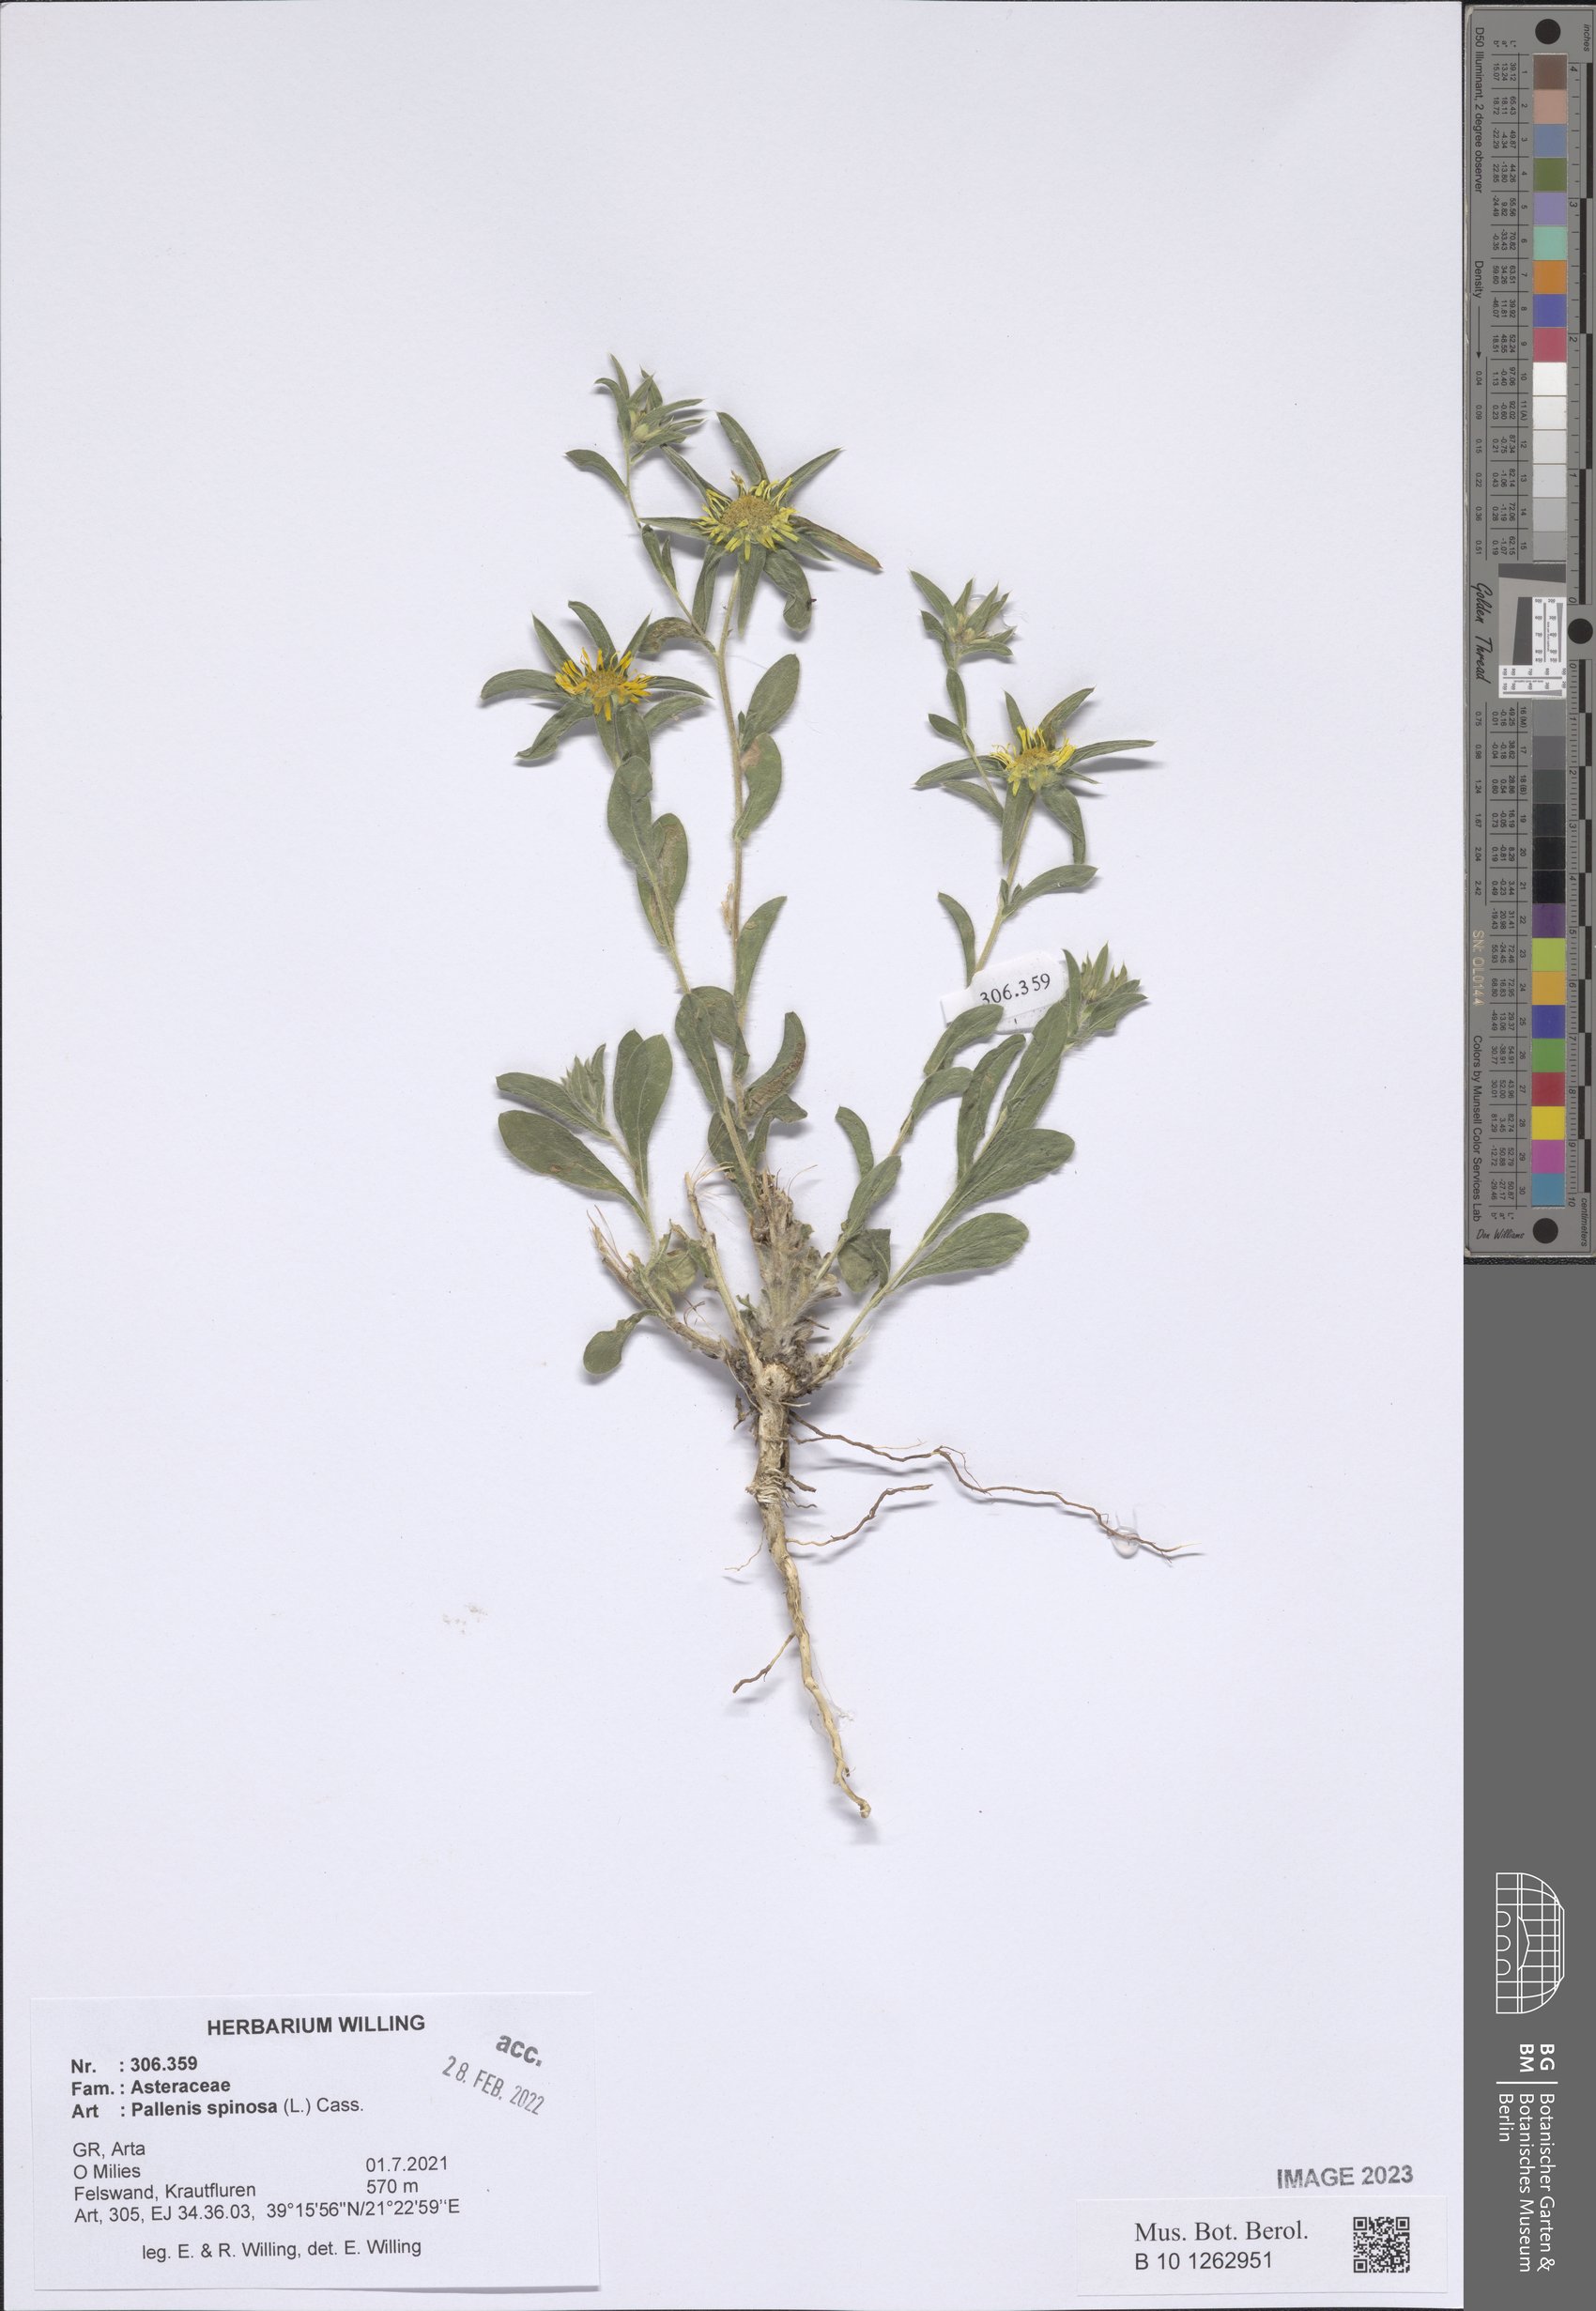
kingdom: Plantae
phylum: Tracheophyta
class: Magnoliopsida
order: Asterales
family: Asteraceae
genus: Pallenis
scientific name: Pallenis spinosa
